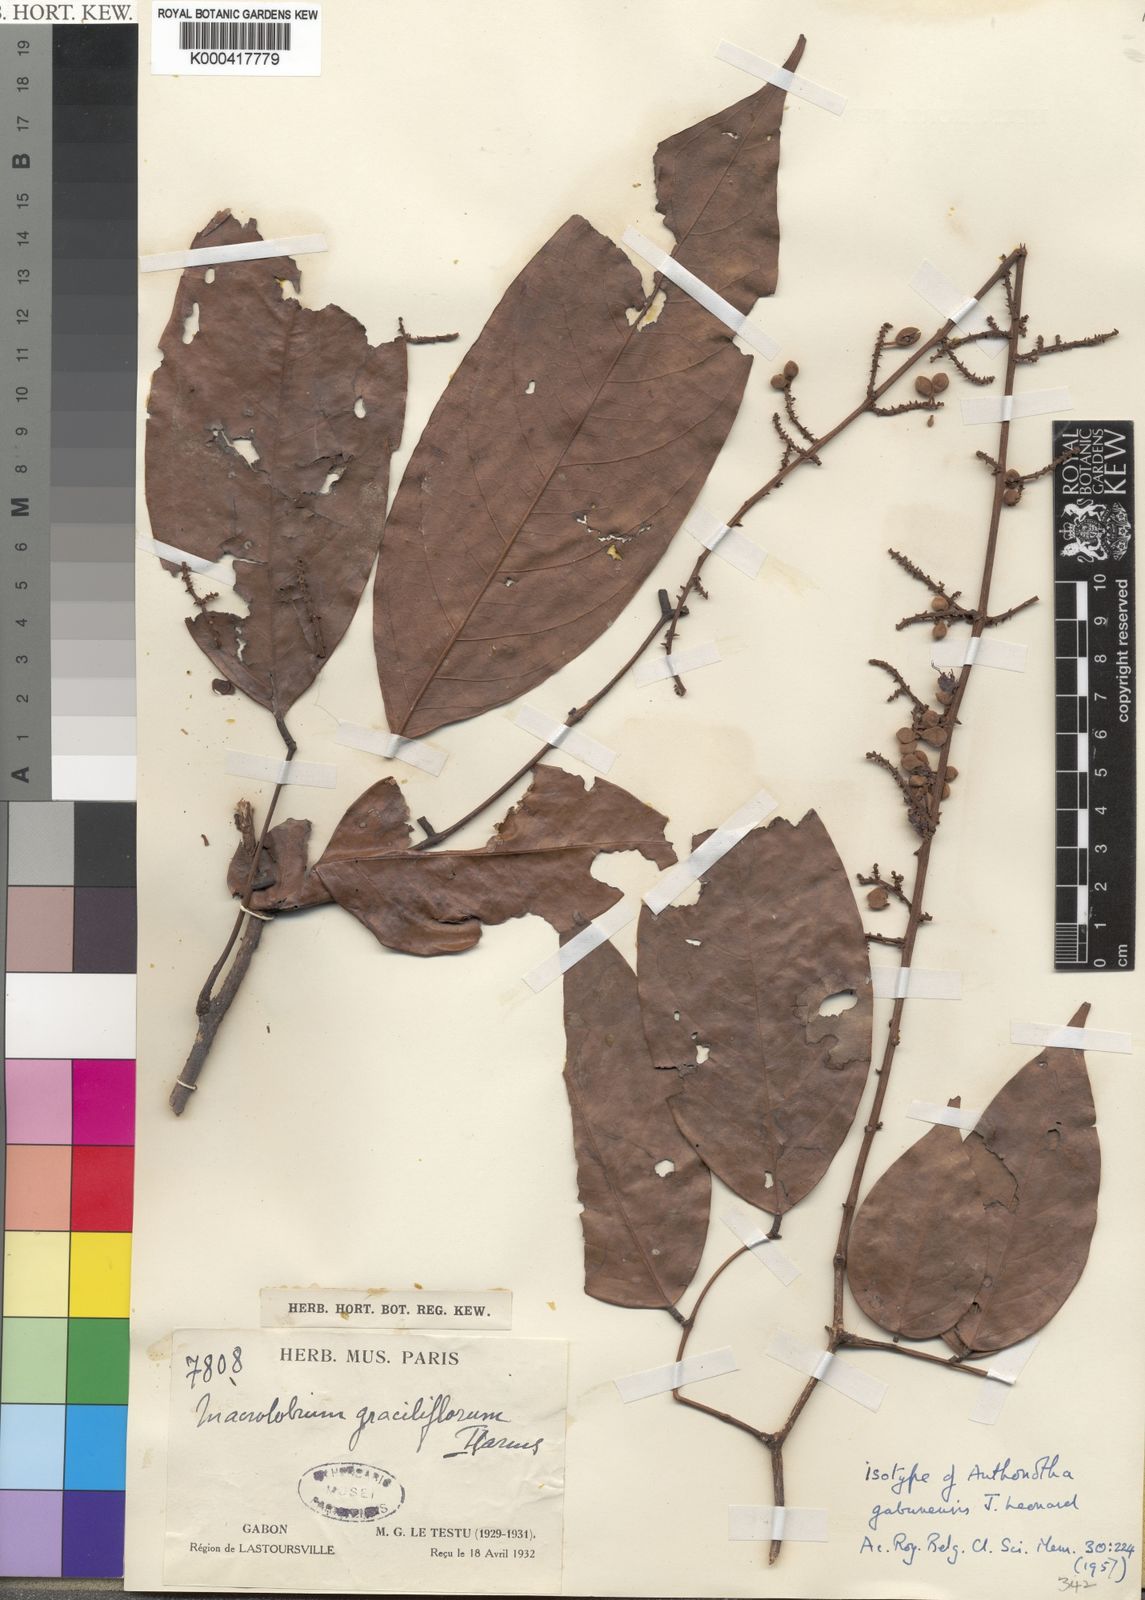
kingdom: Plantae
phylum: Tracheophyta
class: Magnoliopsida
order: Fabales
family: Fabaceae
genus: Anthonotha
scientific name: Anthonotha
